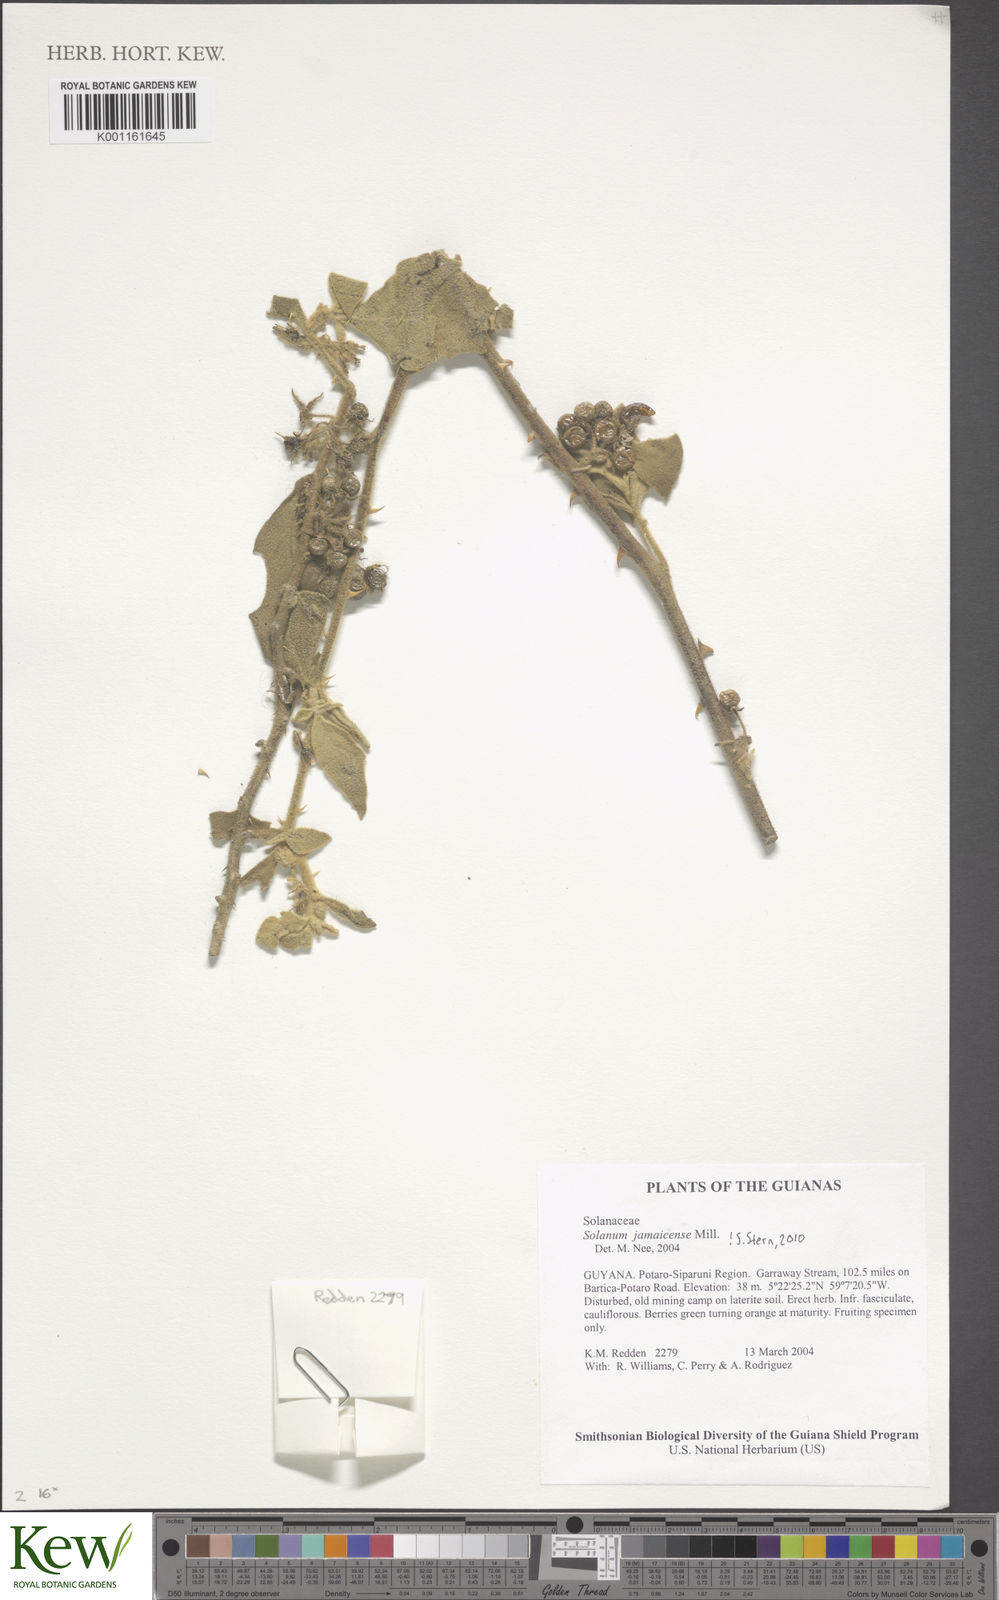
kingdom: Plantae
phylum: Tracheophyta
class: Magnoliopsida
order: Solanales
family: Solanaceae
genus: Solanum
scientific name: Solanum jamaicense
